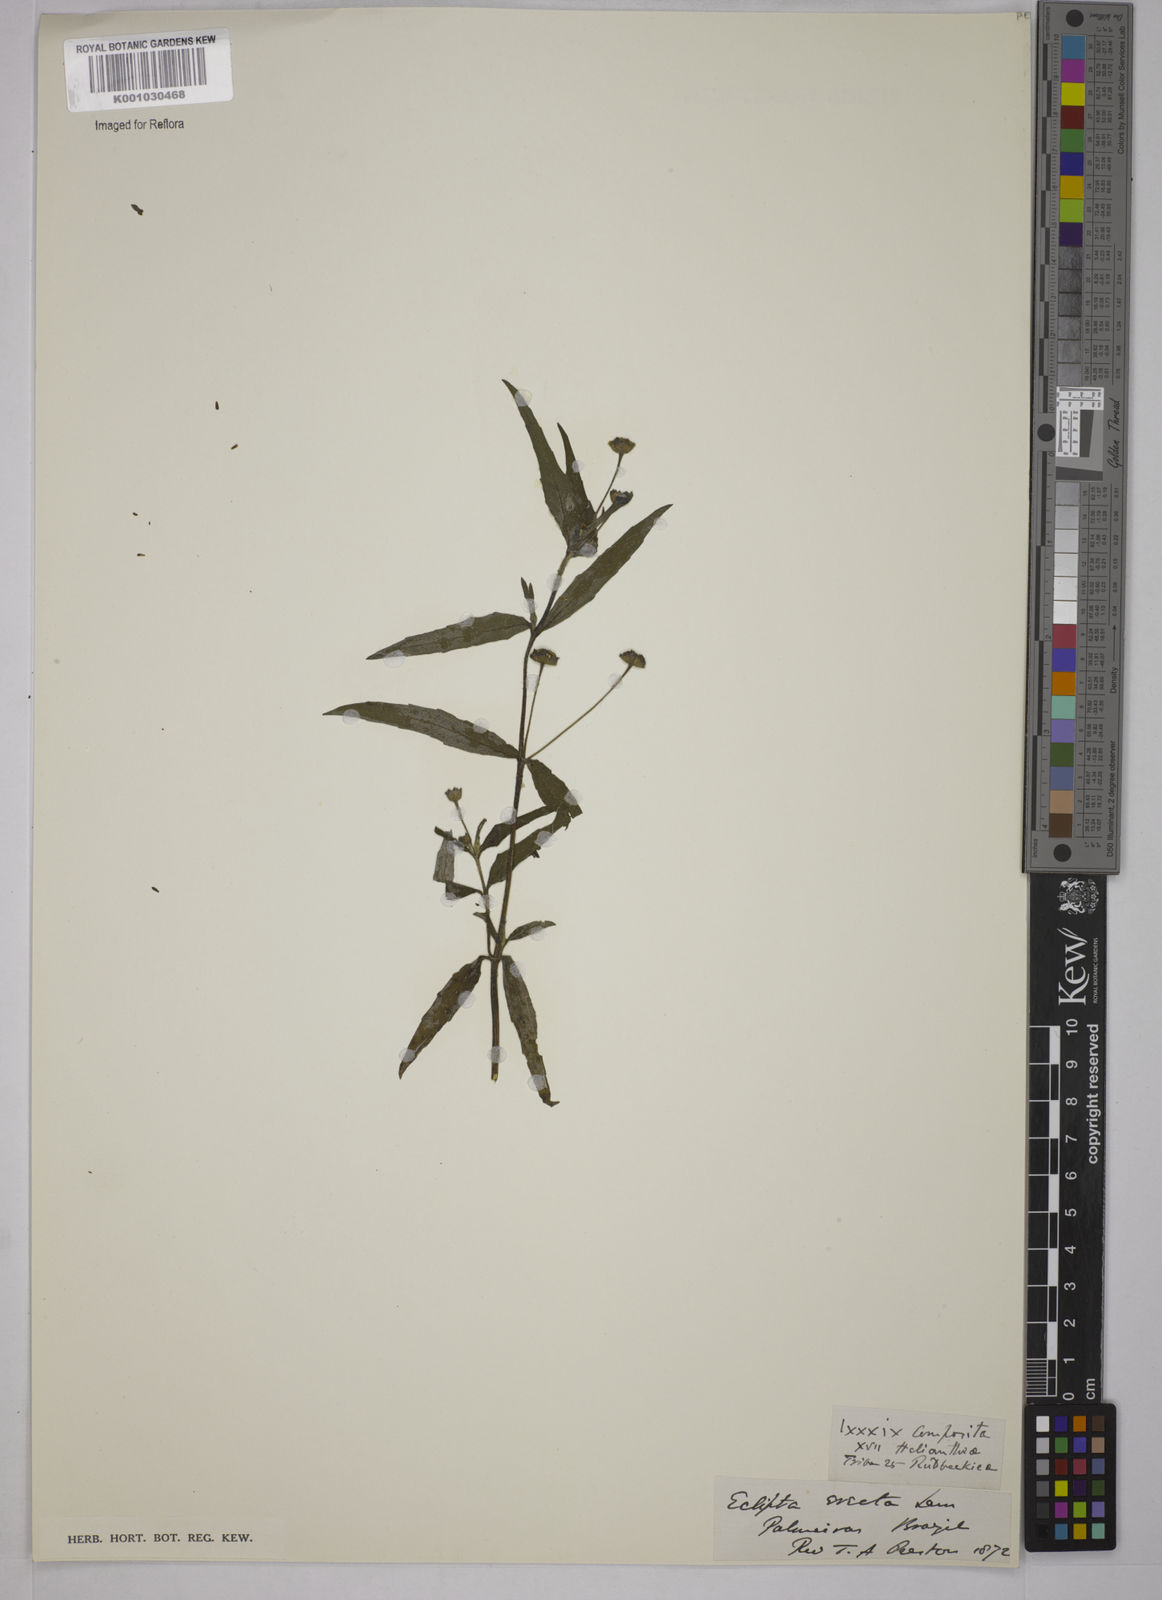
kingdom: Plantae
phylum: Tracheophyta
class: Magnoliopsida
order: Asterales
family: Asteraceae
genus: Eclipta
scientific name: Eclipta prostrata
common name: False daisy
